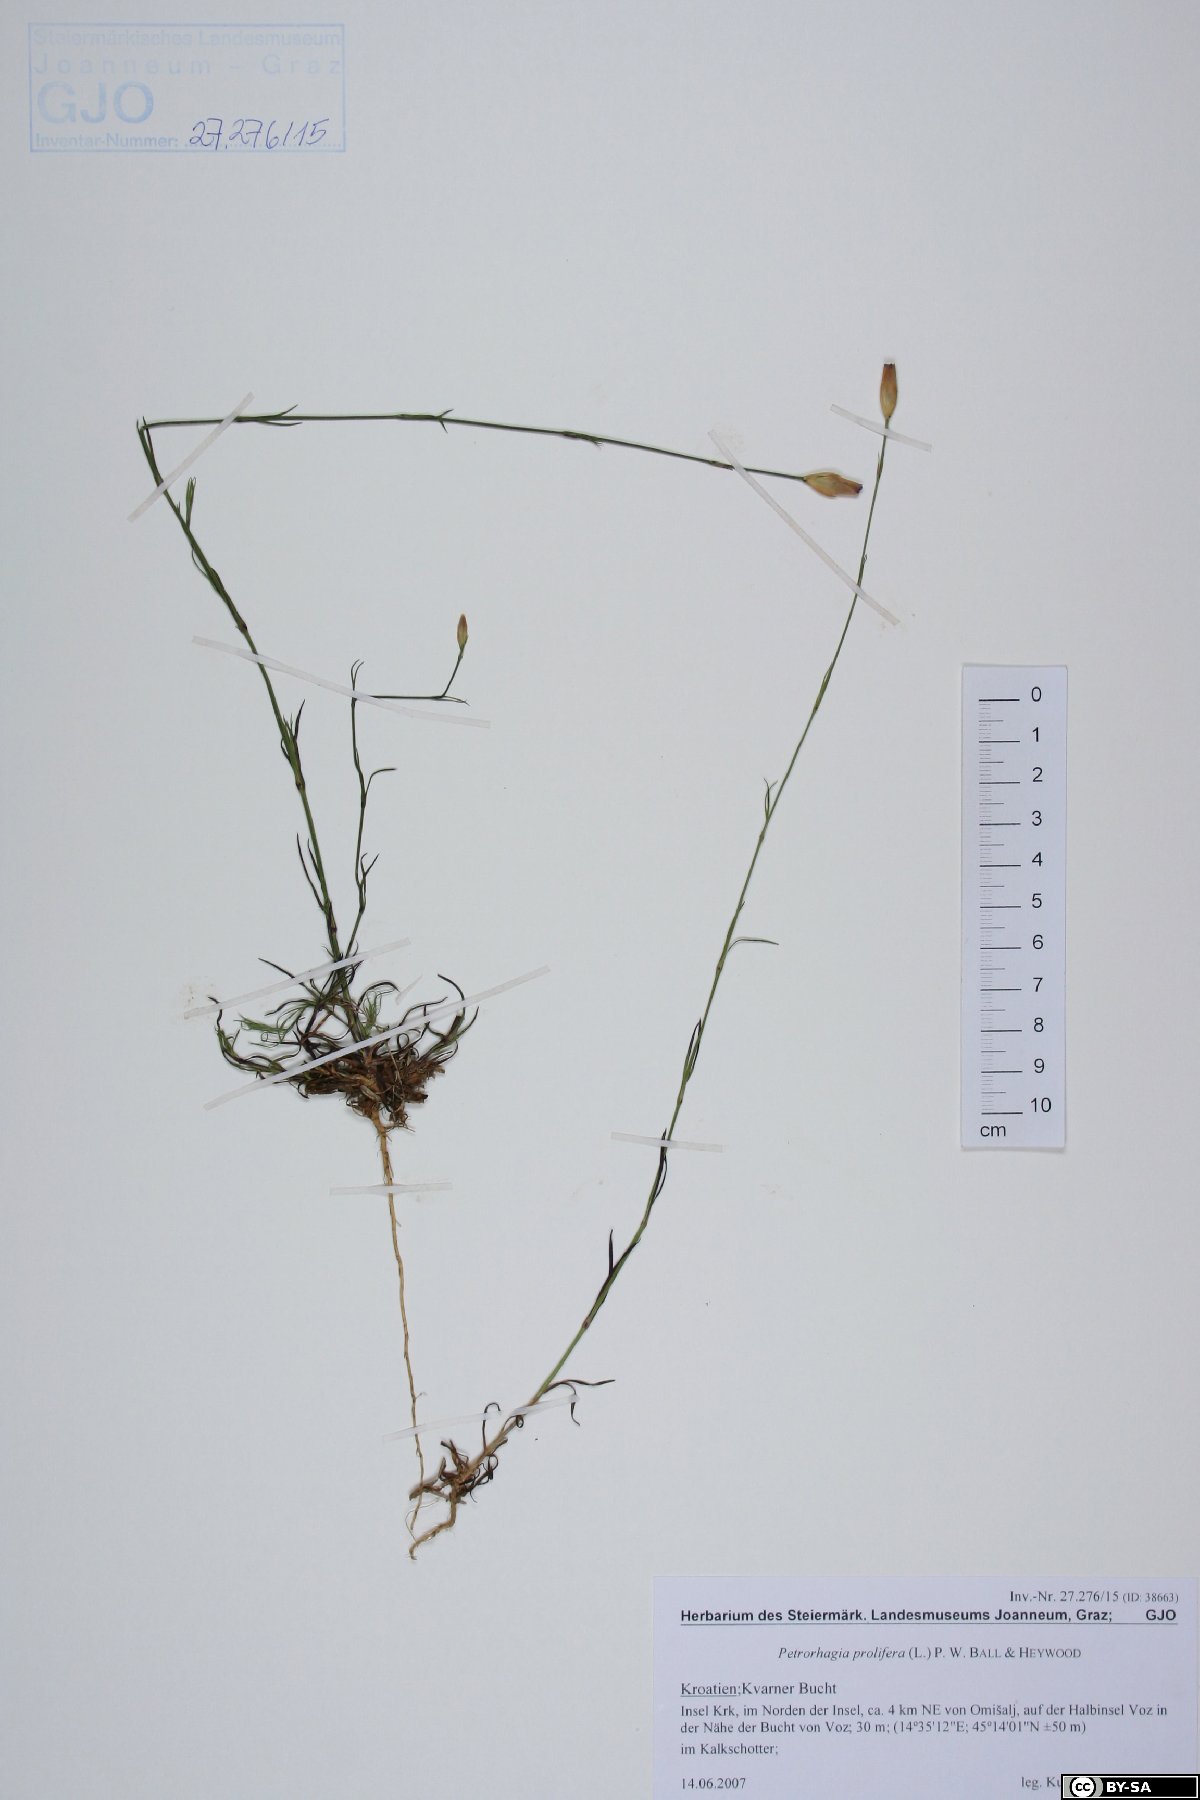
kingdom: Plantae
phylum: Tracheophyta
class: Magnoliopsida
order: Caryophyllales
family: Caryophyllaceae
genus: Petrorhagia
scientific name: Petrorhagia prolifera
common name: Proliferous pink
